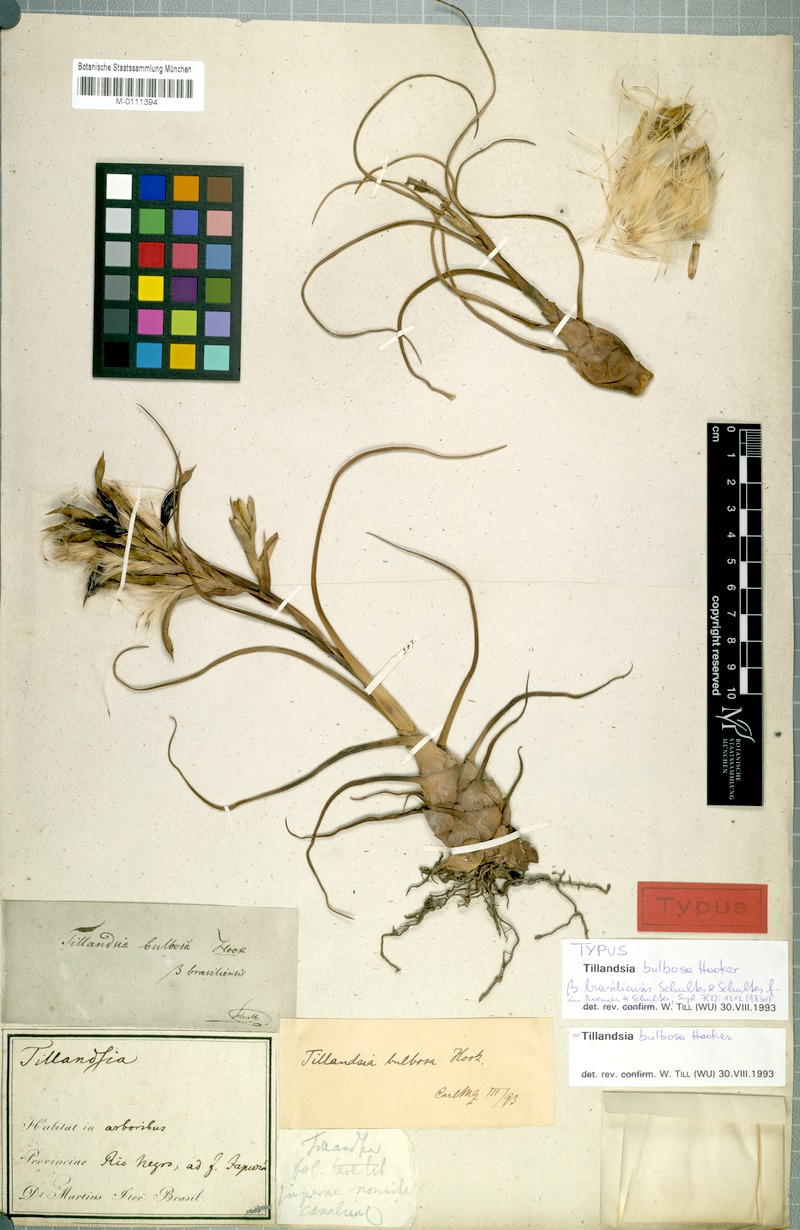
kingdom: Plantae
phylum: Tracheophyta
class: Liliopsida
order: Poales
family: Bromeliaceae
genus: Tillandsia
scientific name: Tillandsia bulbosa
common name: Bulbous airplant
